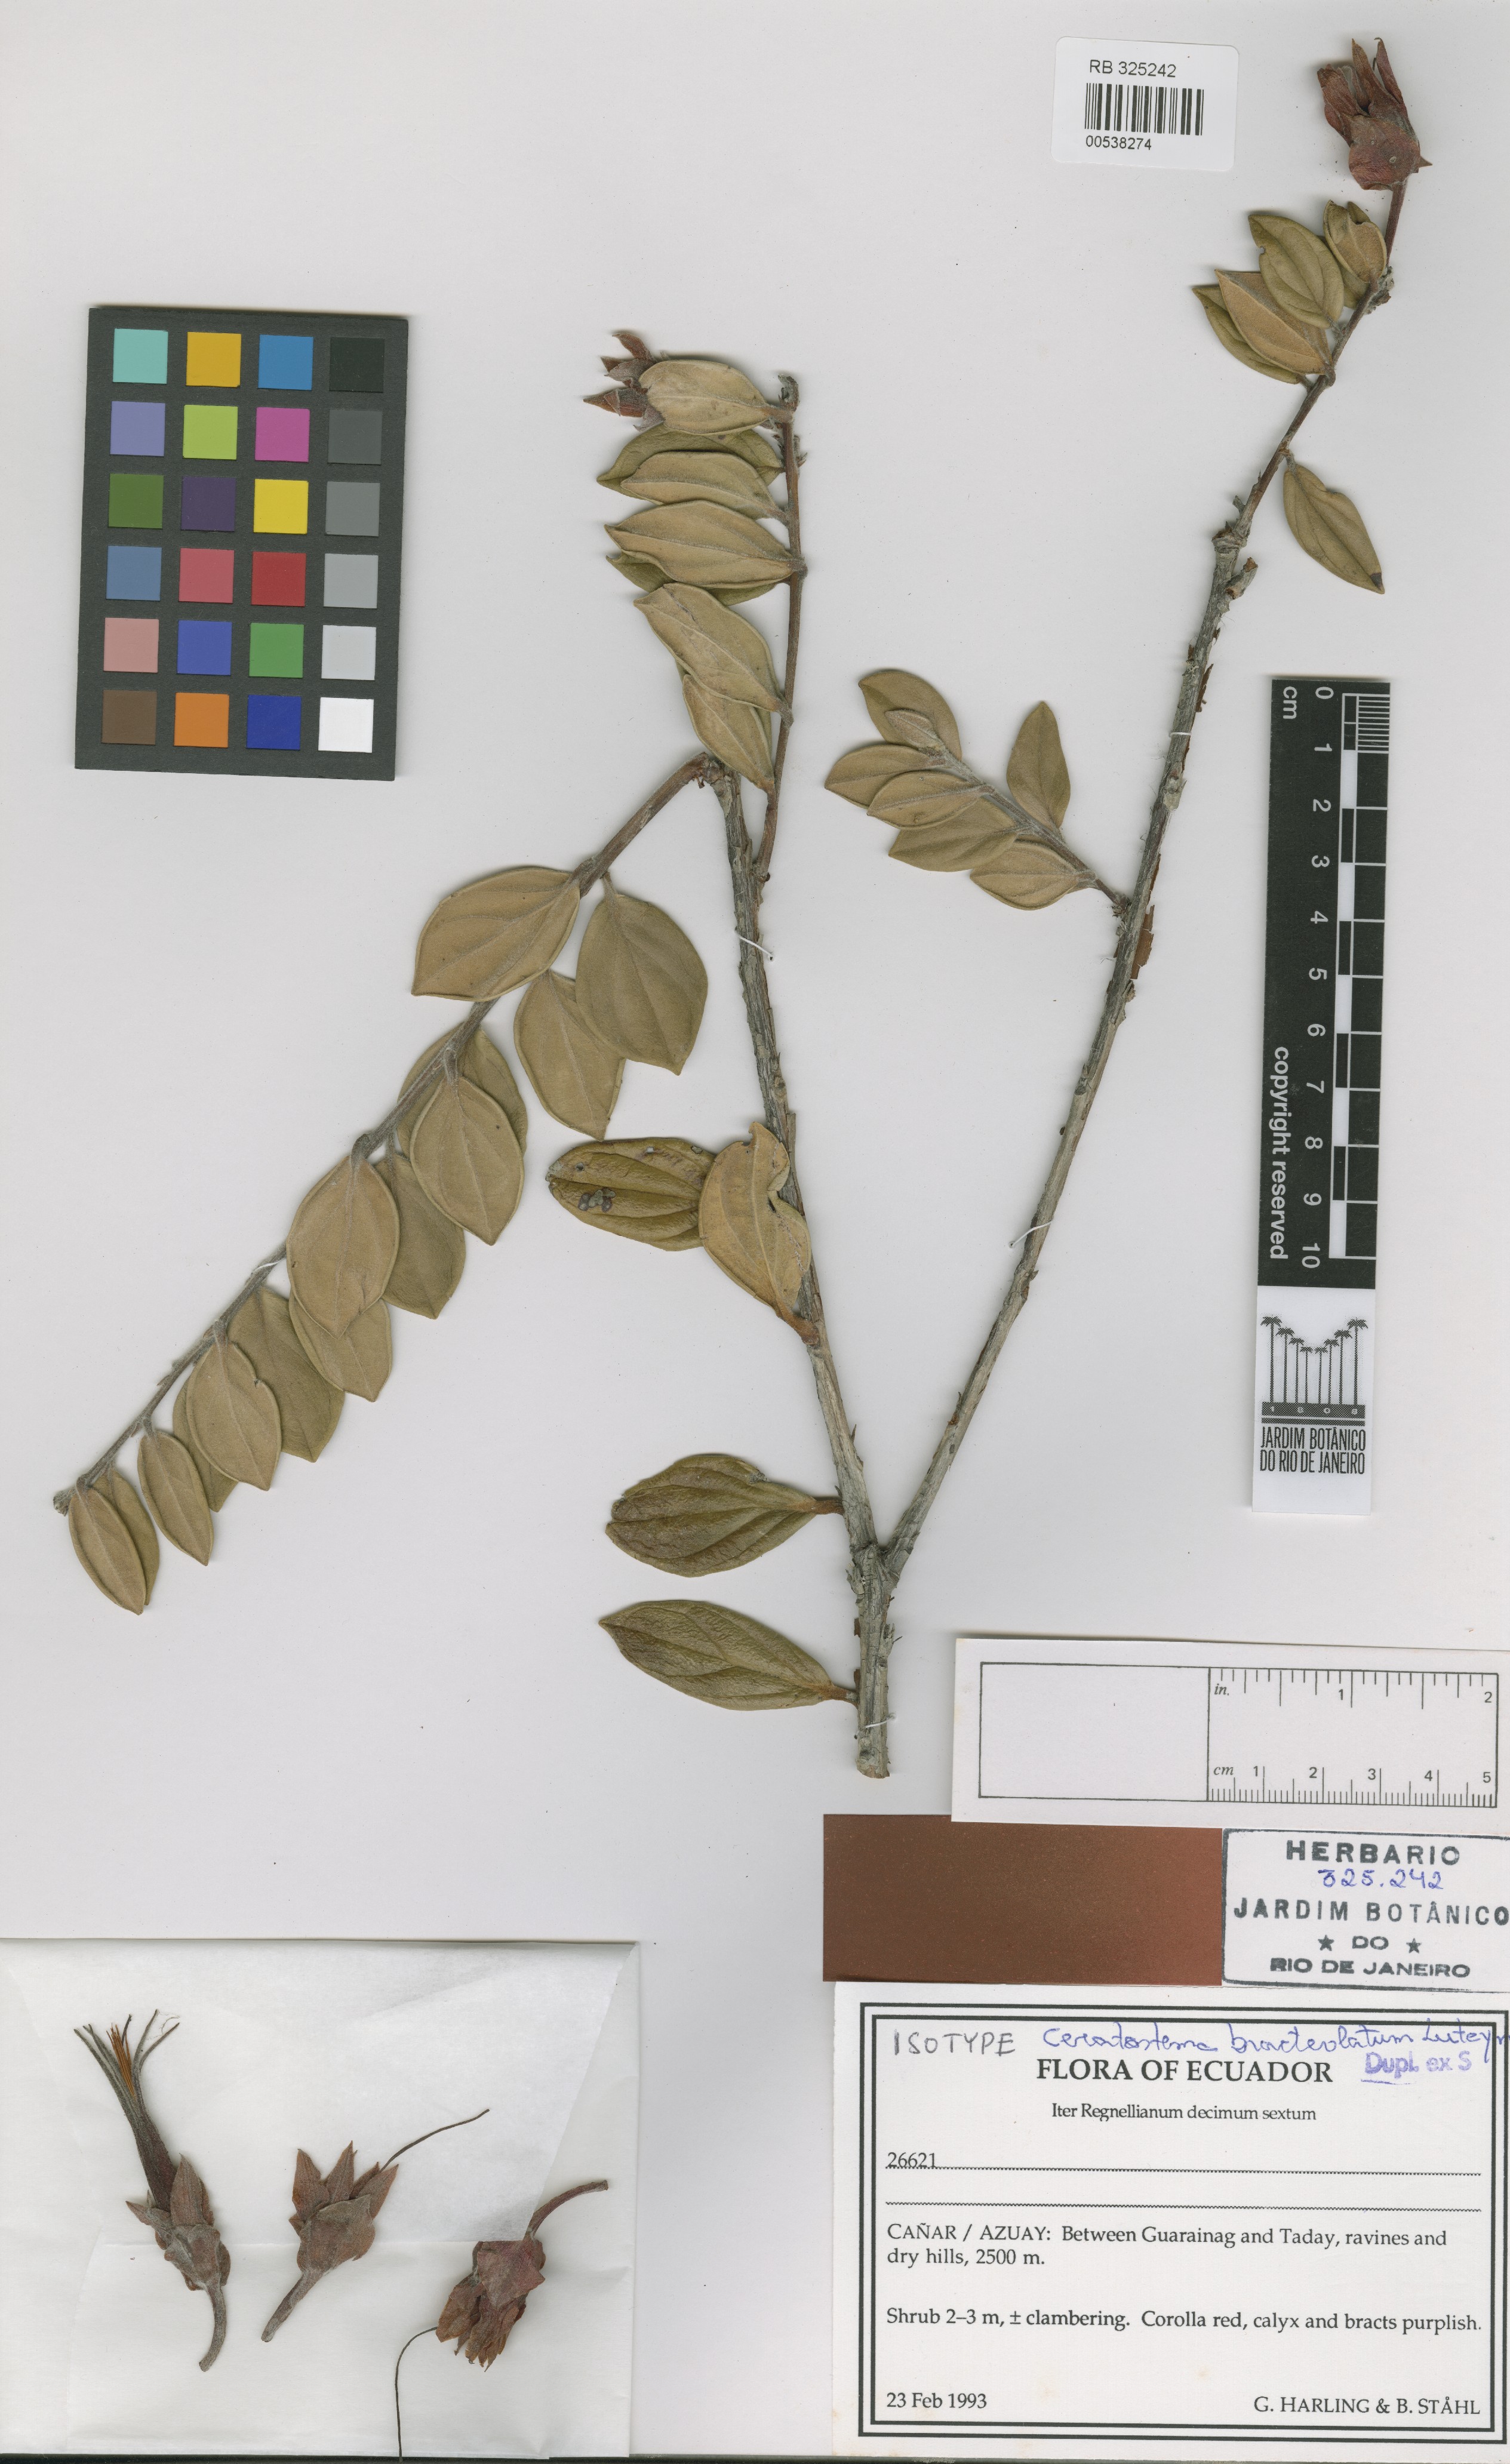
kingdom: Plantae
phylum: Tracheophyta
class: Magnoliopsida
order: Ericales
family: Ericaceae
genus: Ceratostema
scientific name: Ceratostema bracteolatum
